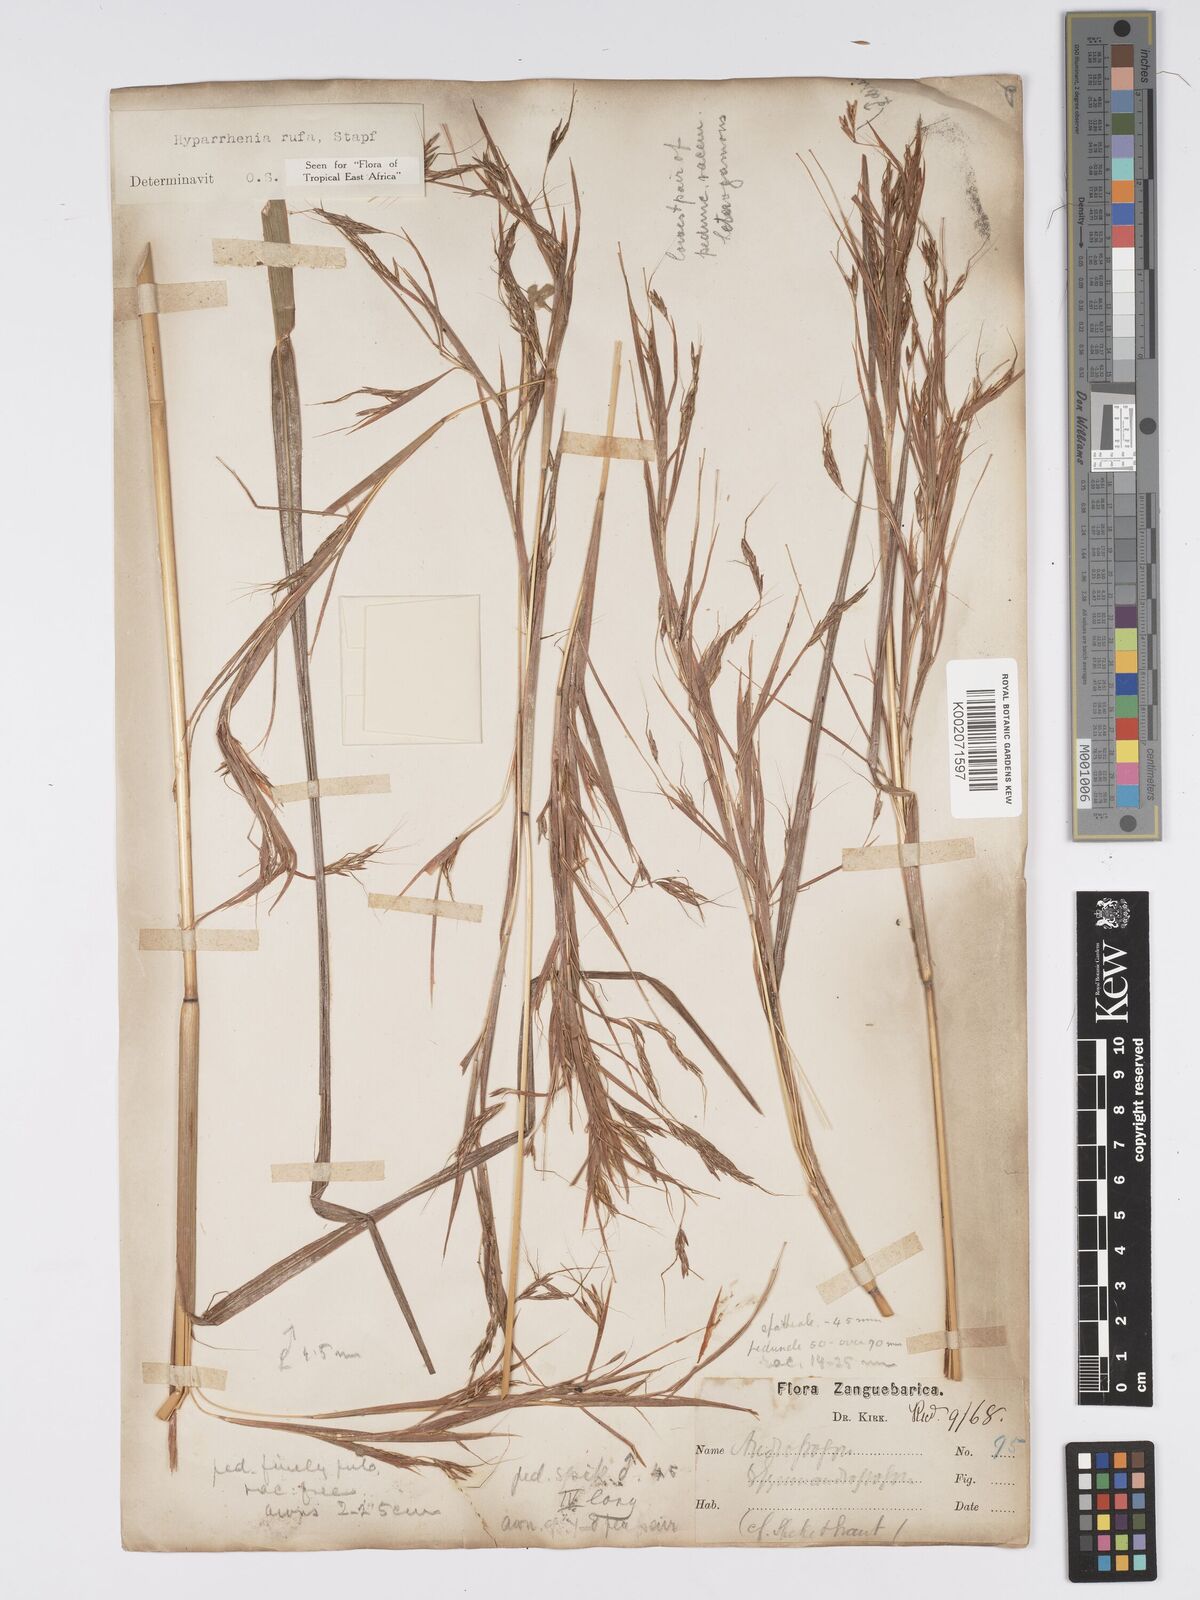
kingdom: Plantae
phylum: Tracheophyta
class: Liliopsida
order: Poales
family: Poaceae
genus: Hyparrhenia
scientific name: Hyparrhenia rufa
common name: Jaraguagrass
